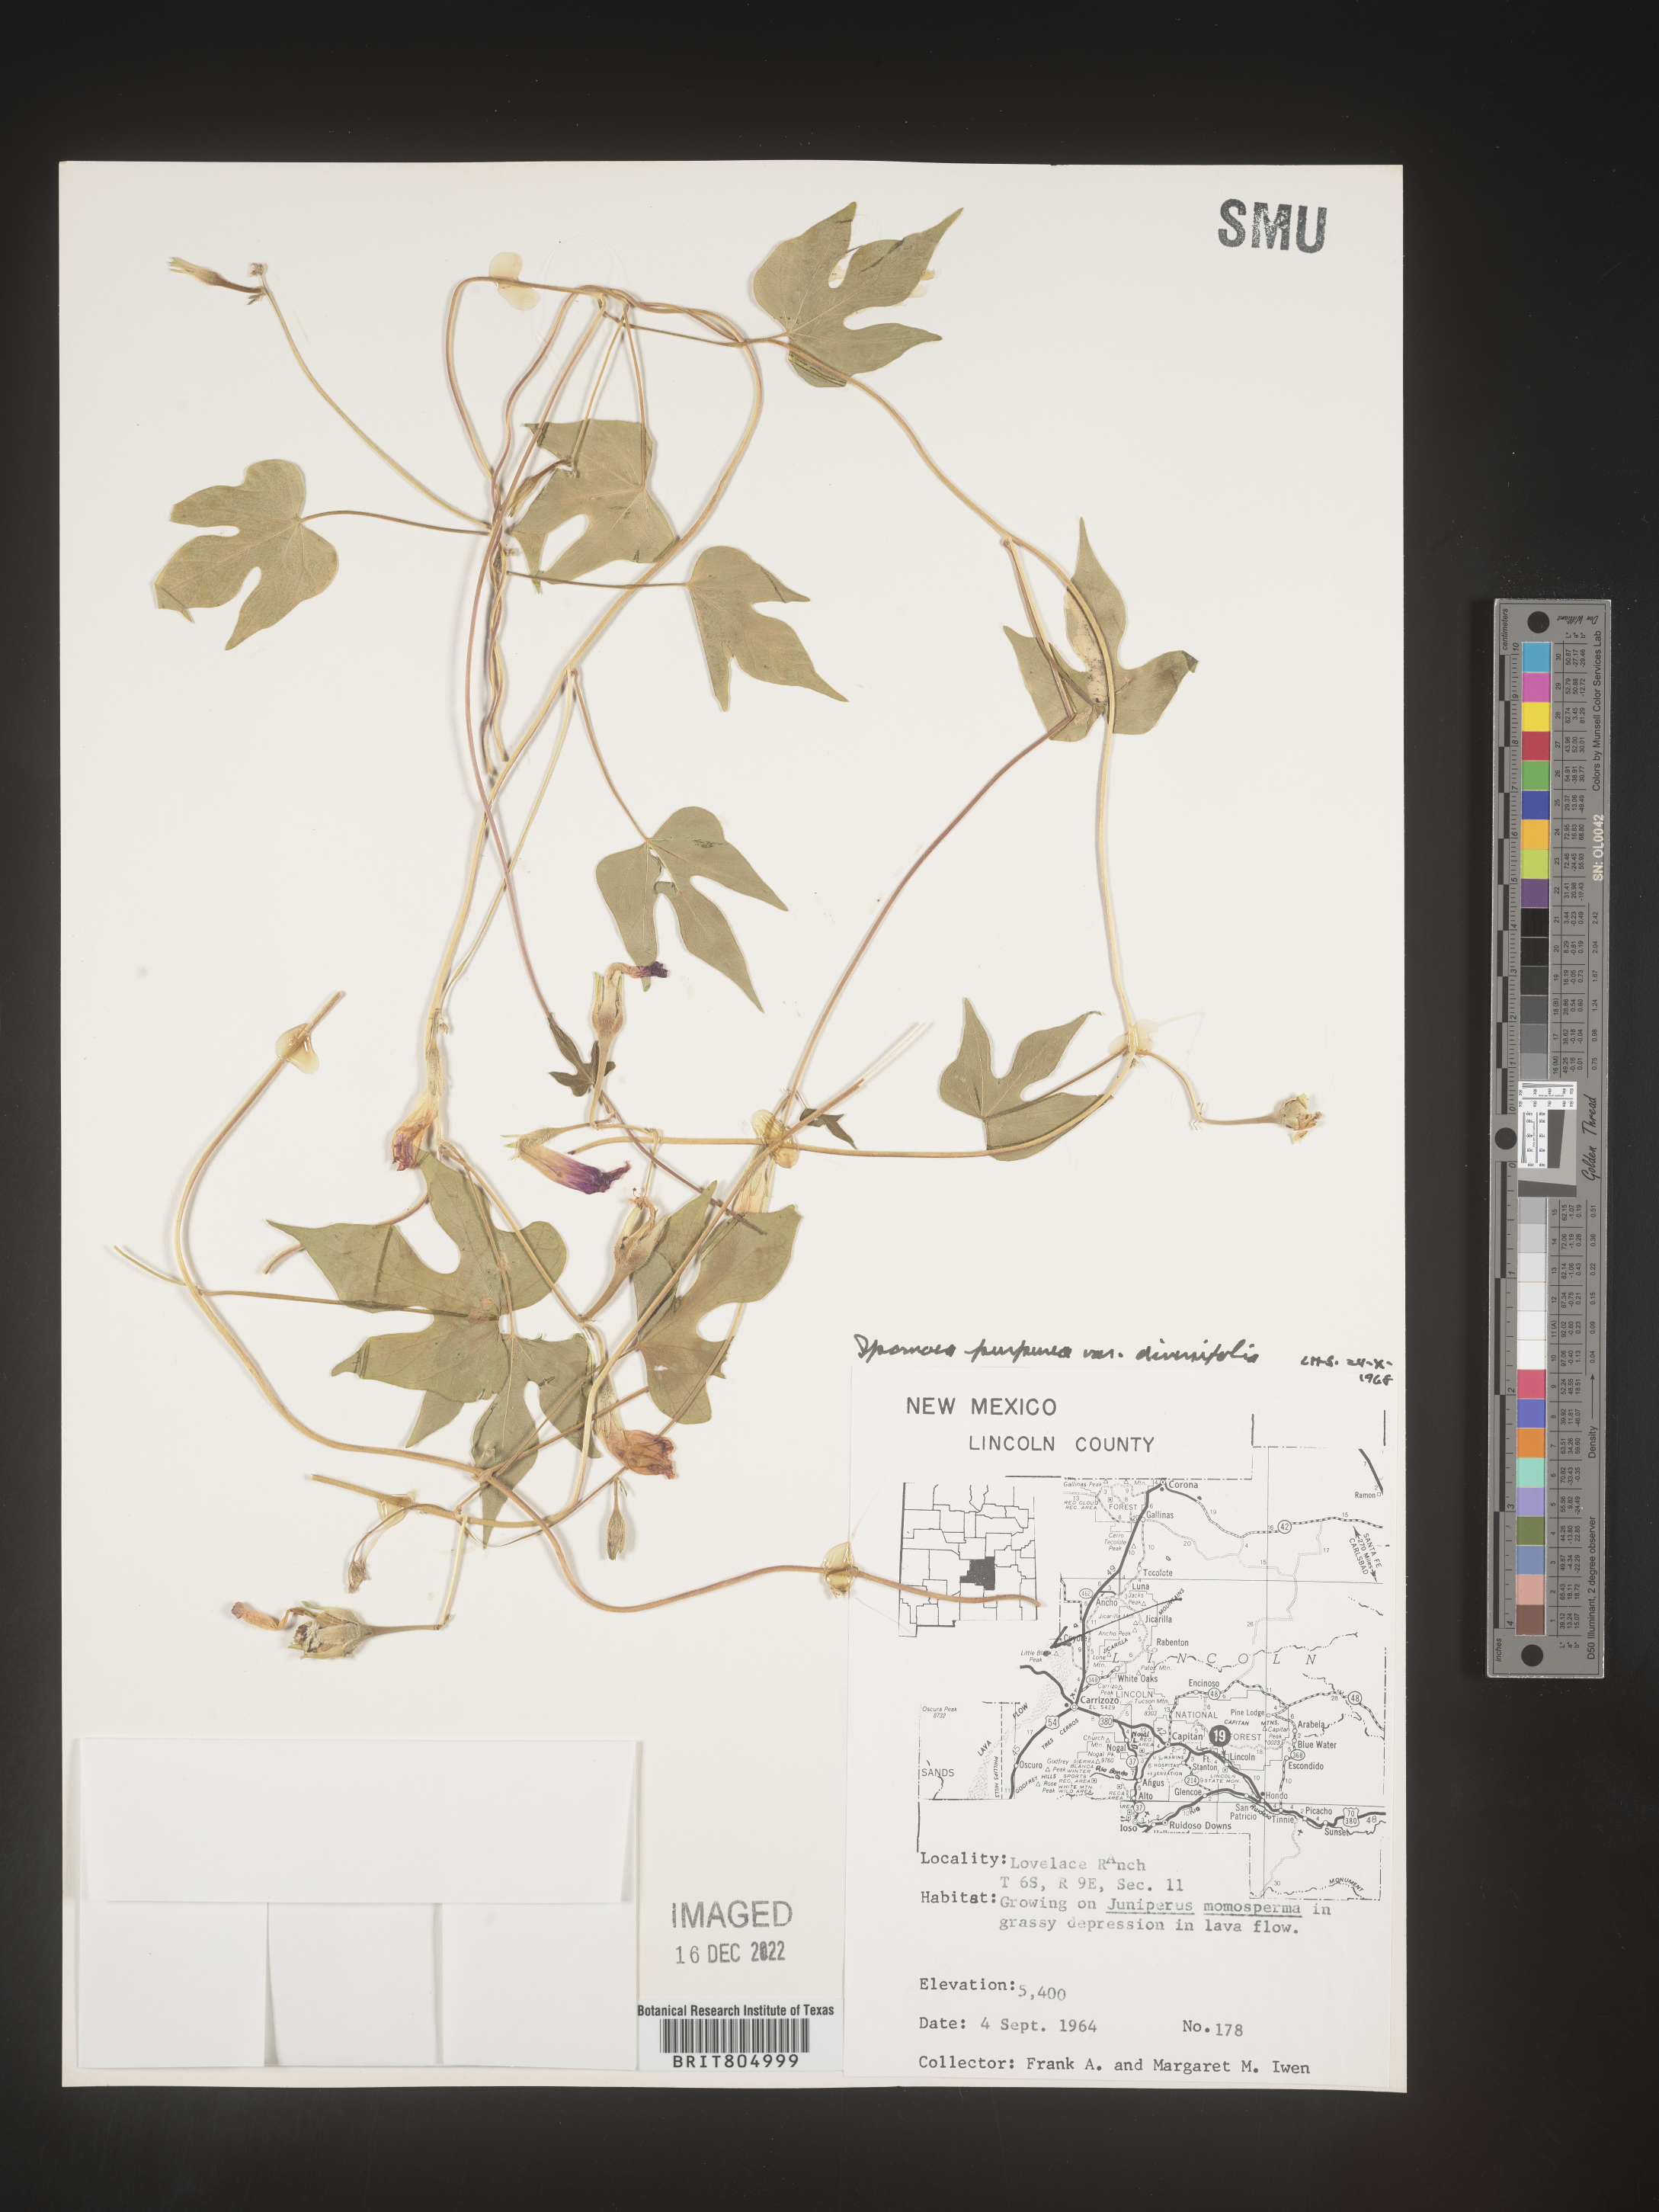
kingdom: Plantae
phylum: Tracheophyta
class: Magnoliopsida
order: Solanales
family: Convolvulaceae
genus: Ipomoea
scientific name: Ipomoea purpurea
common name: Common morning-glory
